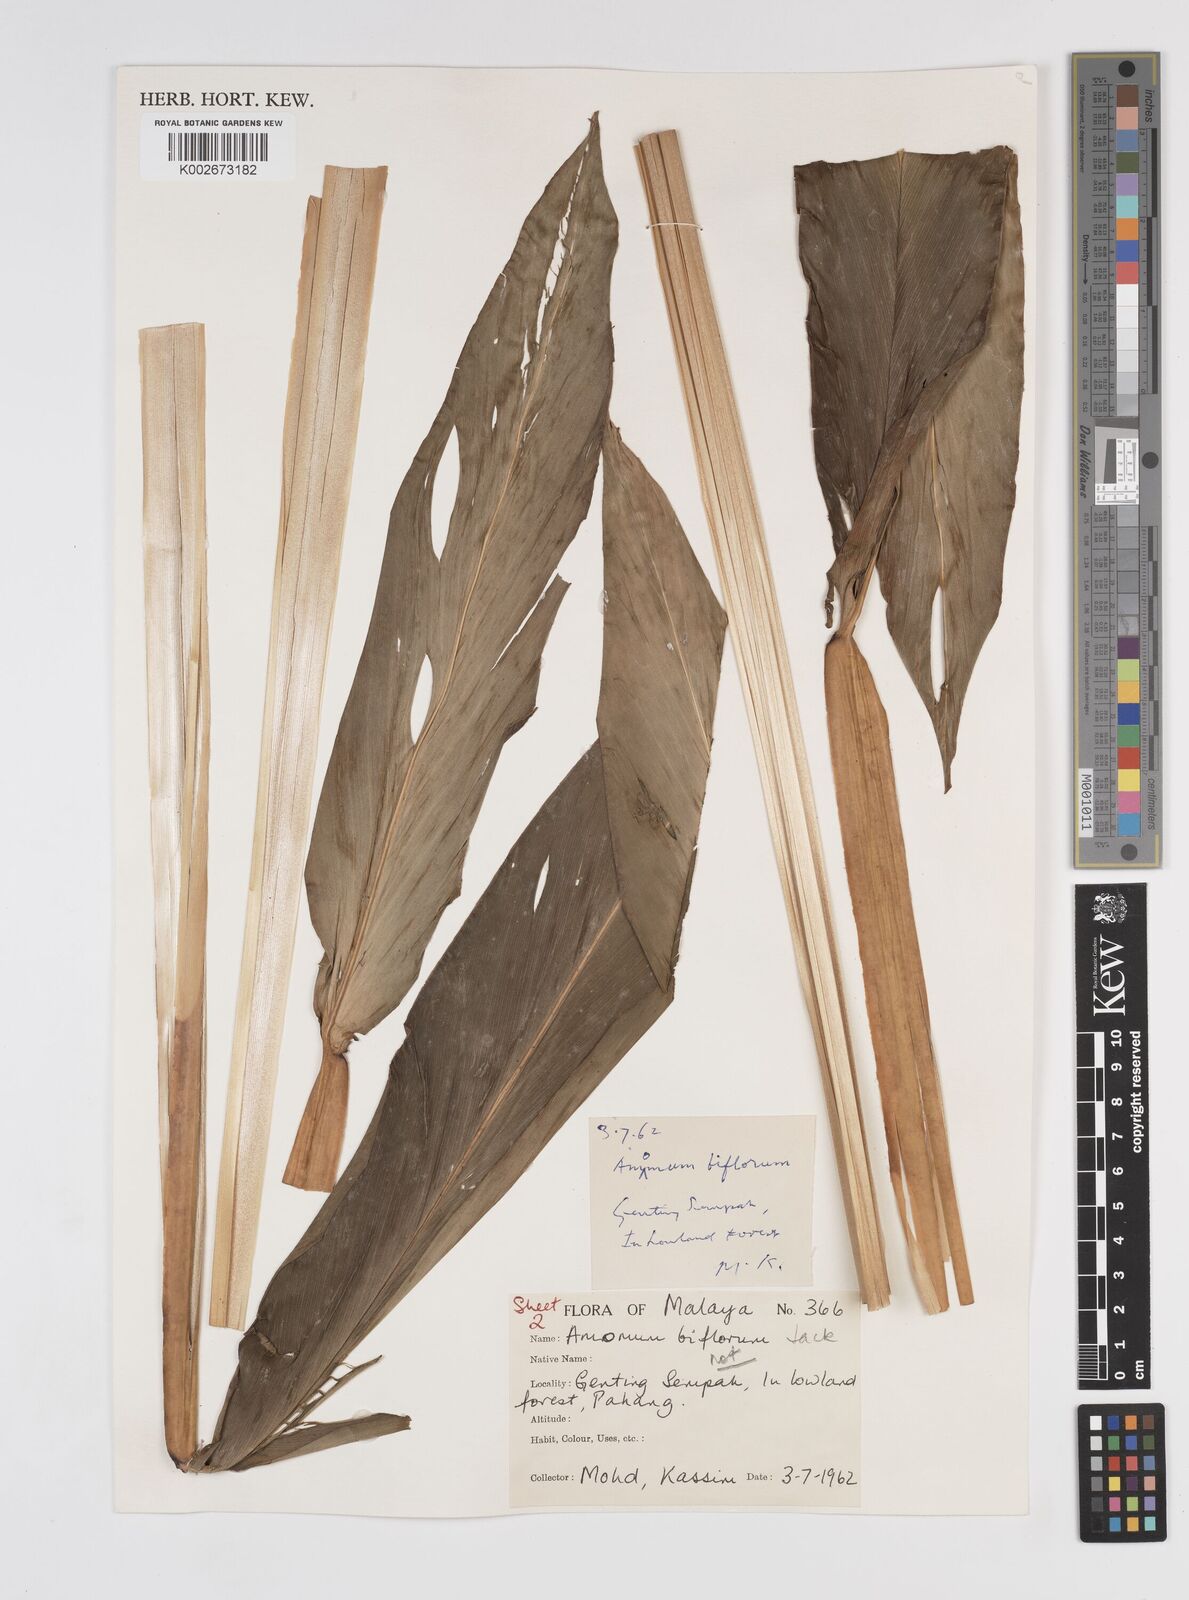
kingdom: Plantae
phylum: Tracheophyta
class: Liliopsida
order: Zingiberales
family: Zingiberaceae
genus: Meistera
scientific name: Meistera lappacea
